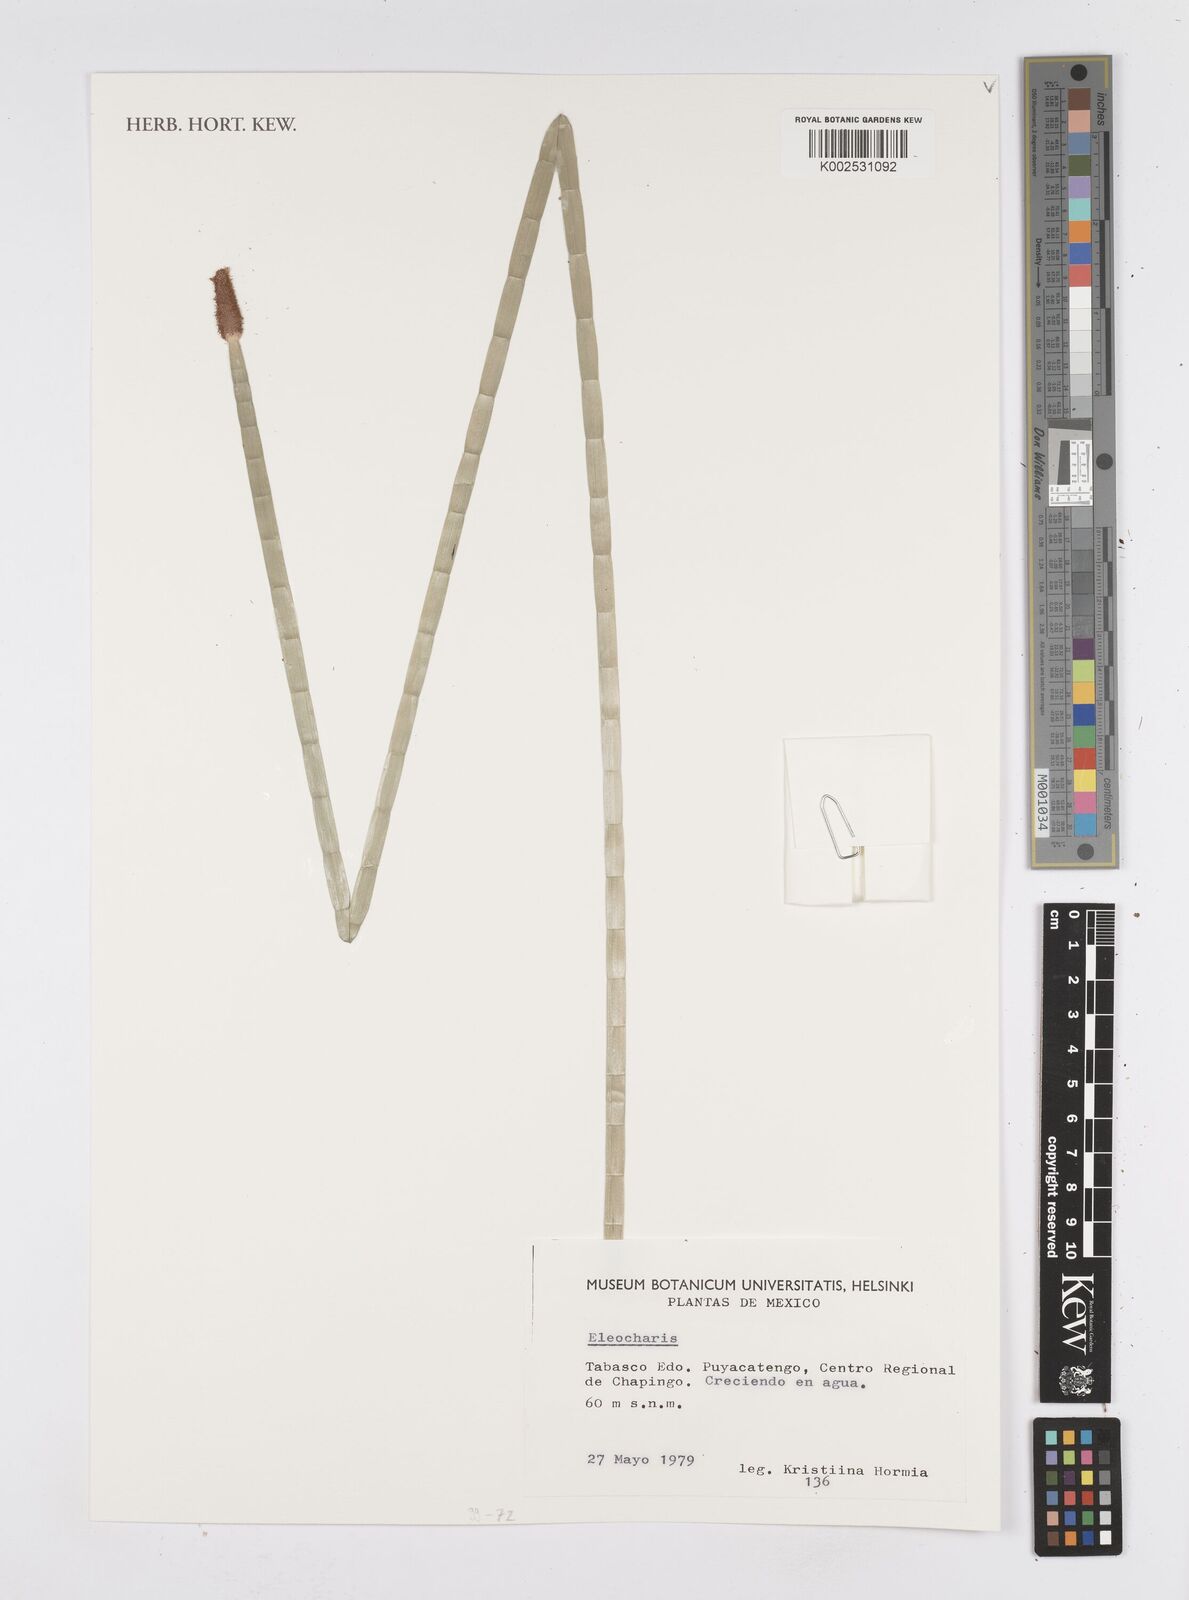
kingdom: Plantae
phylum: Tracheophyta
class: Liliopsida
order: Poales
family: Cyperaceae
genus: Eleocharis
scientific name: Eleocharis
